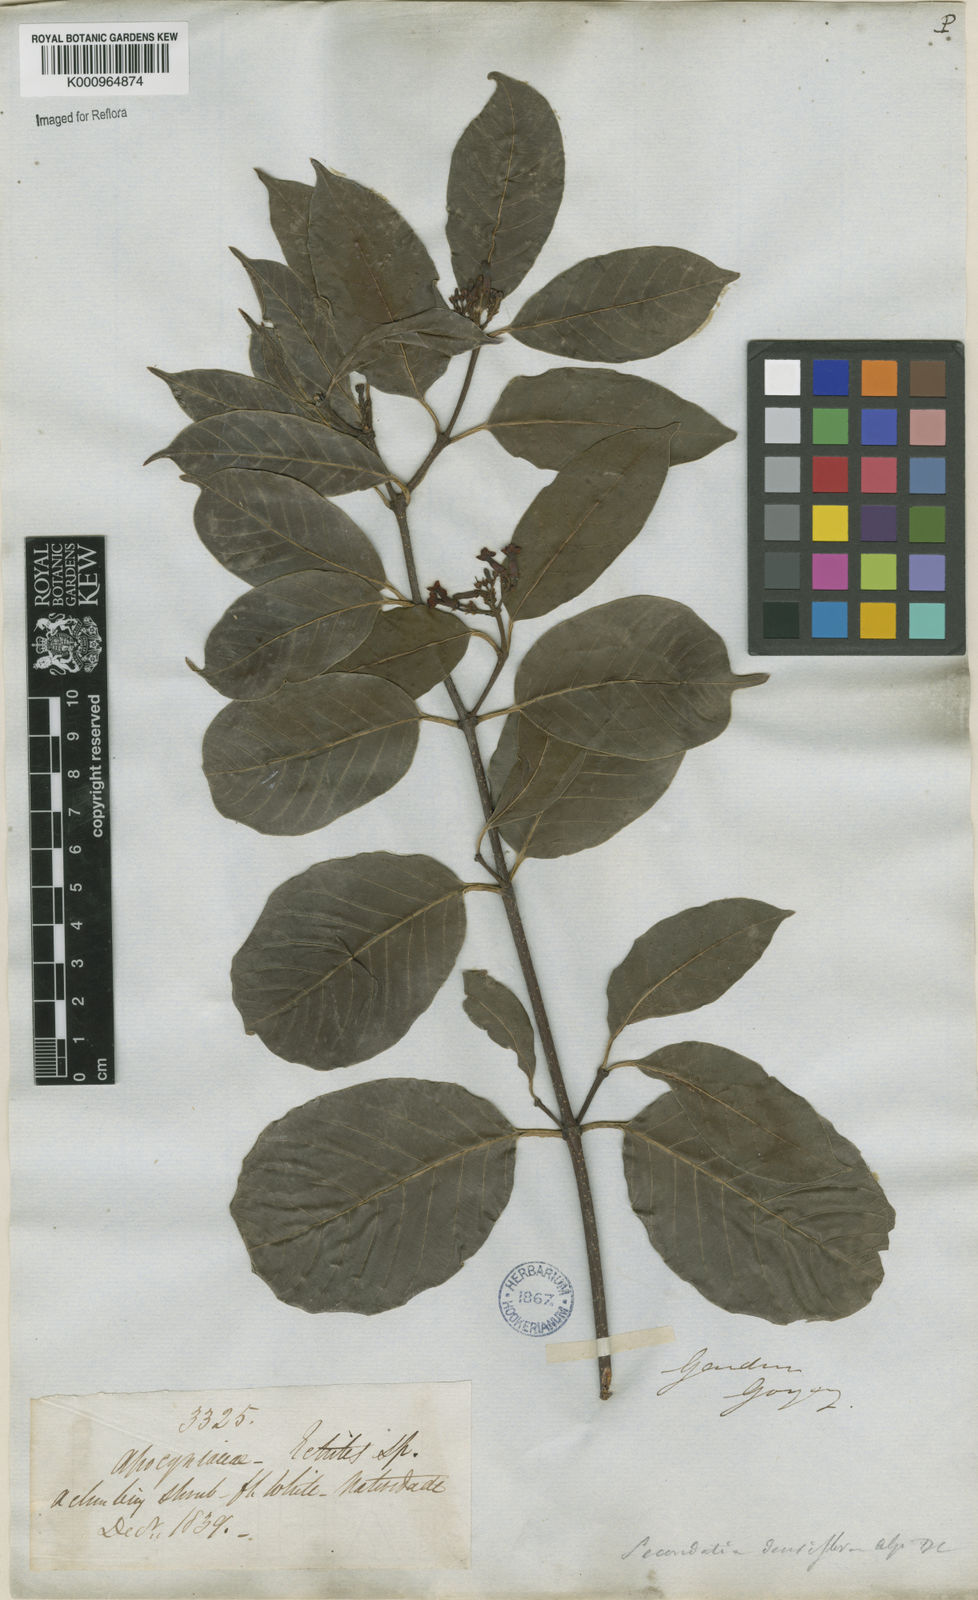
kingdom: Plantae
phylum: Tracheophyta
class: Magnoliopsida
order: Gentianales
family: Apocynaceae
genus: Secondatia
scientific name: Secondatia densiflora
